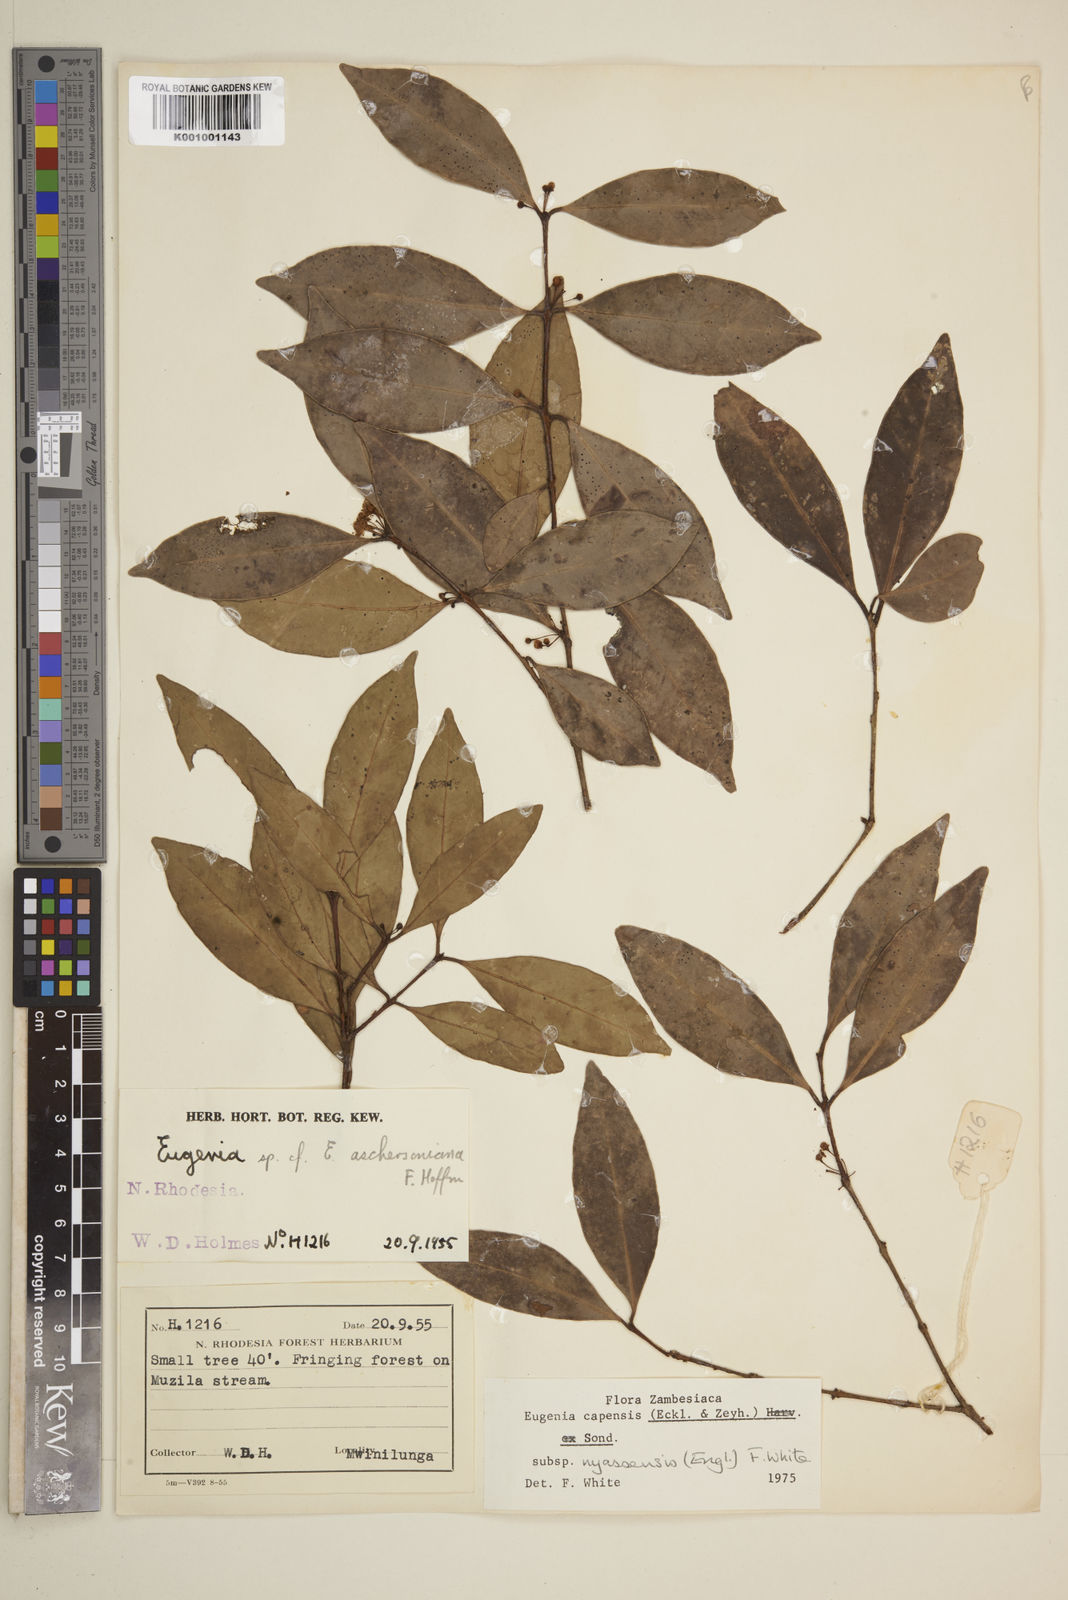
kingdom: Plantae
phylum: Tracheophyta
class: Magnoliopsida
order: Myrtales
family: Myrtaceae
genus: Eugenia
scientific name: Eugenia capensis
